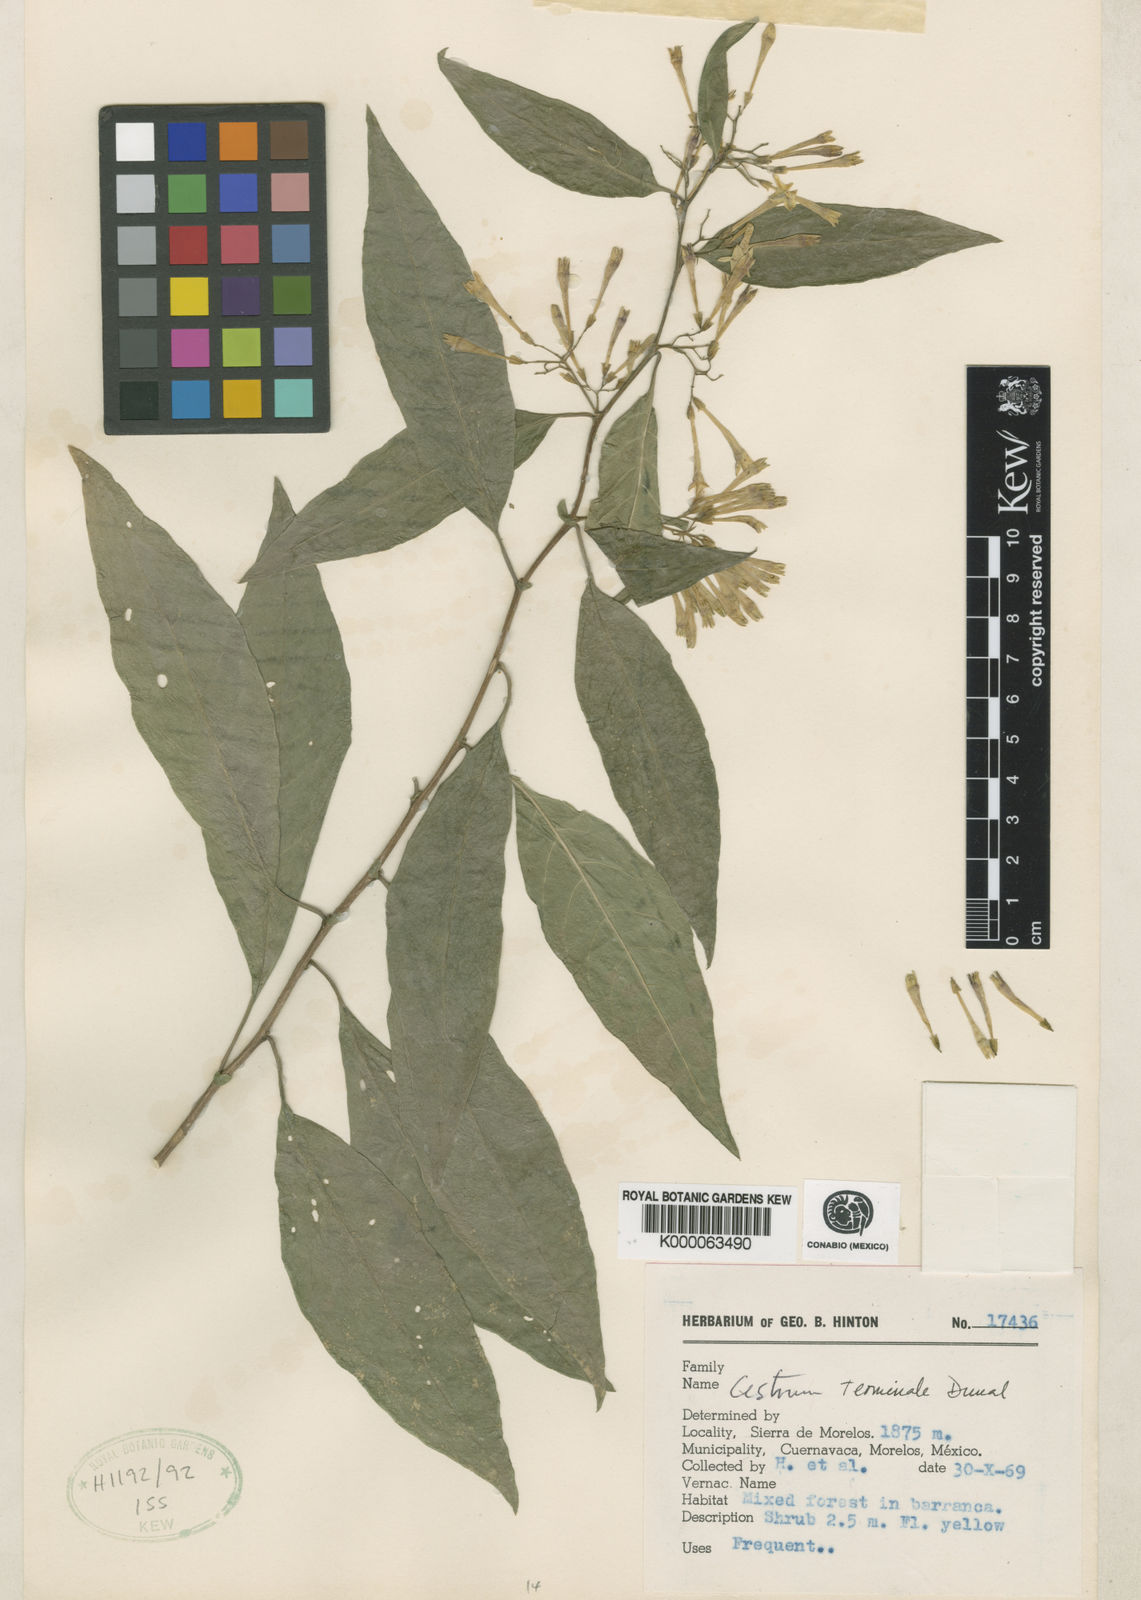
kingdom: Plantae
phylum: Tracheophyta
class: Magnoliopsida
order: Solanales
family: Solanaceae
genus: Cestrum
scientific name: Cestrum thyrsoideum
